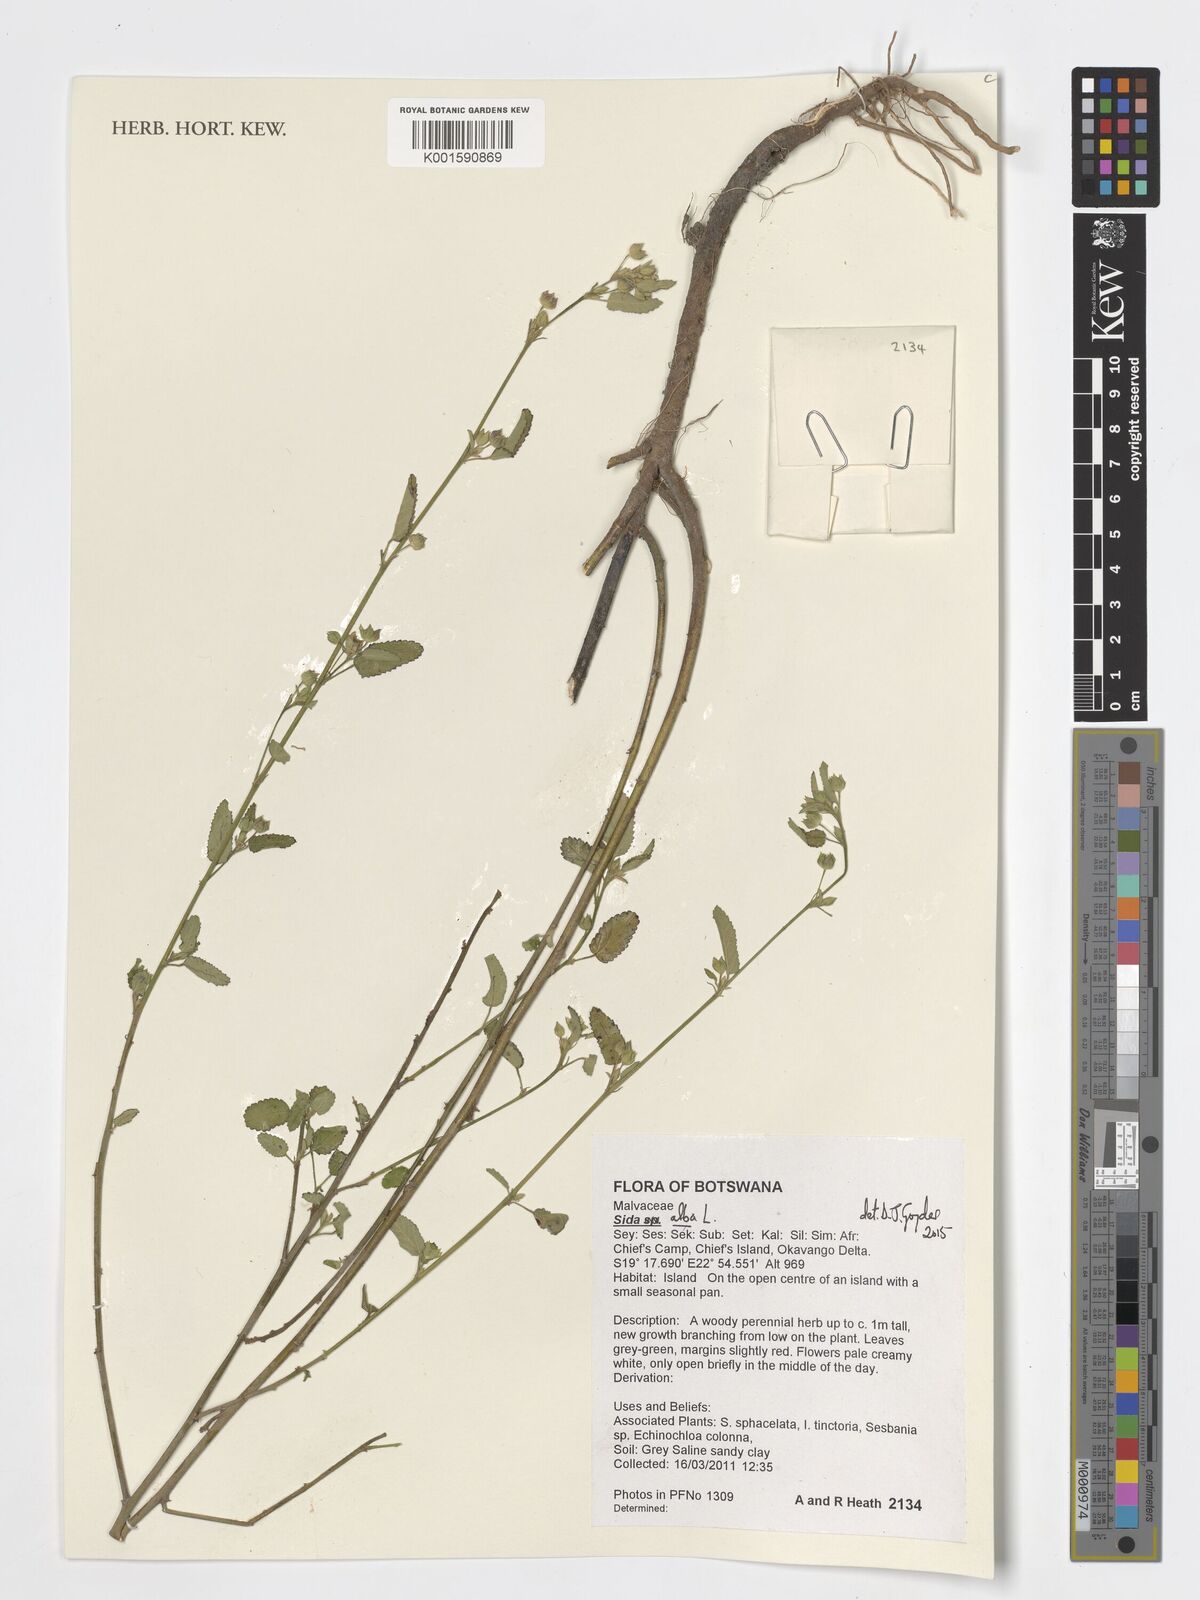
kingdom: Plantae
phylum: Tracheophyta
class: Magnoliopsida
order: Malvales
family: Malvaceae
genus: Sida
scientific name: Sida alba
